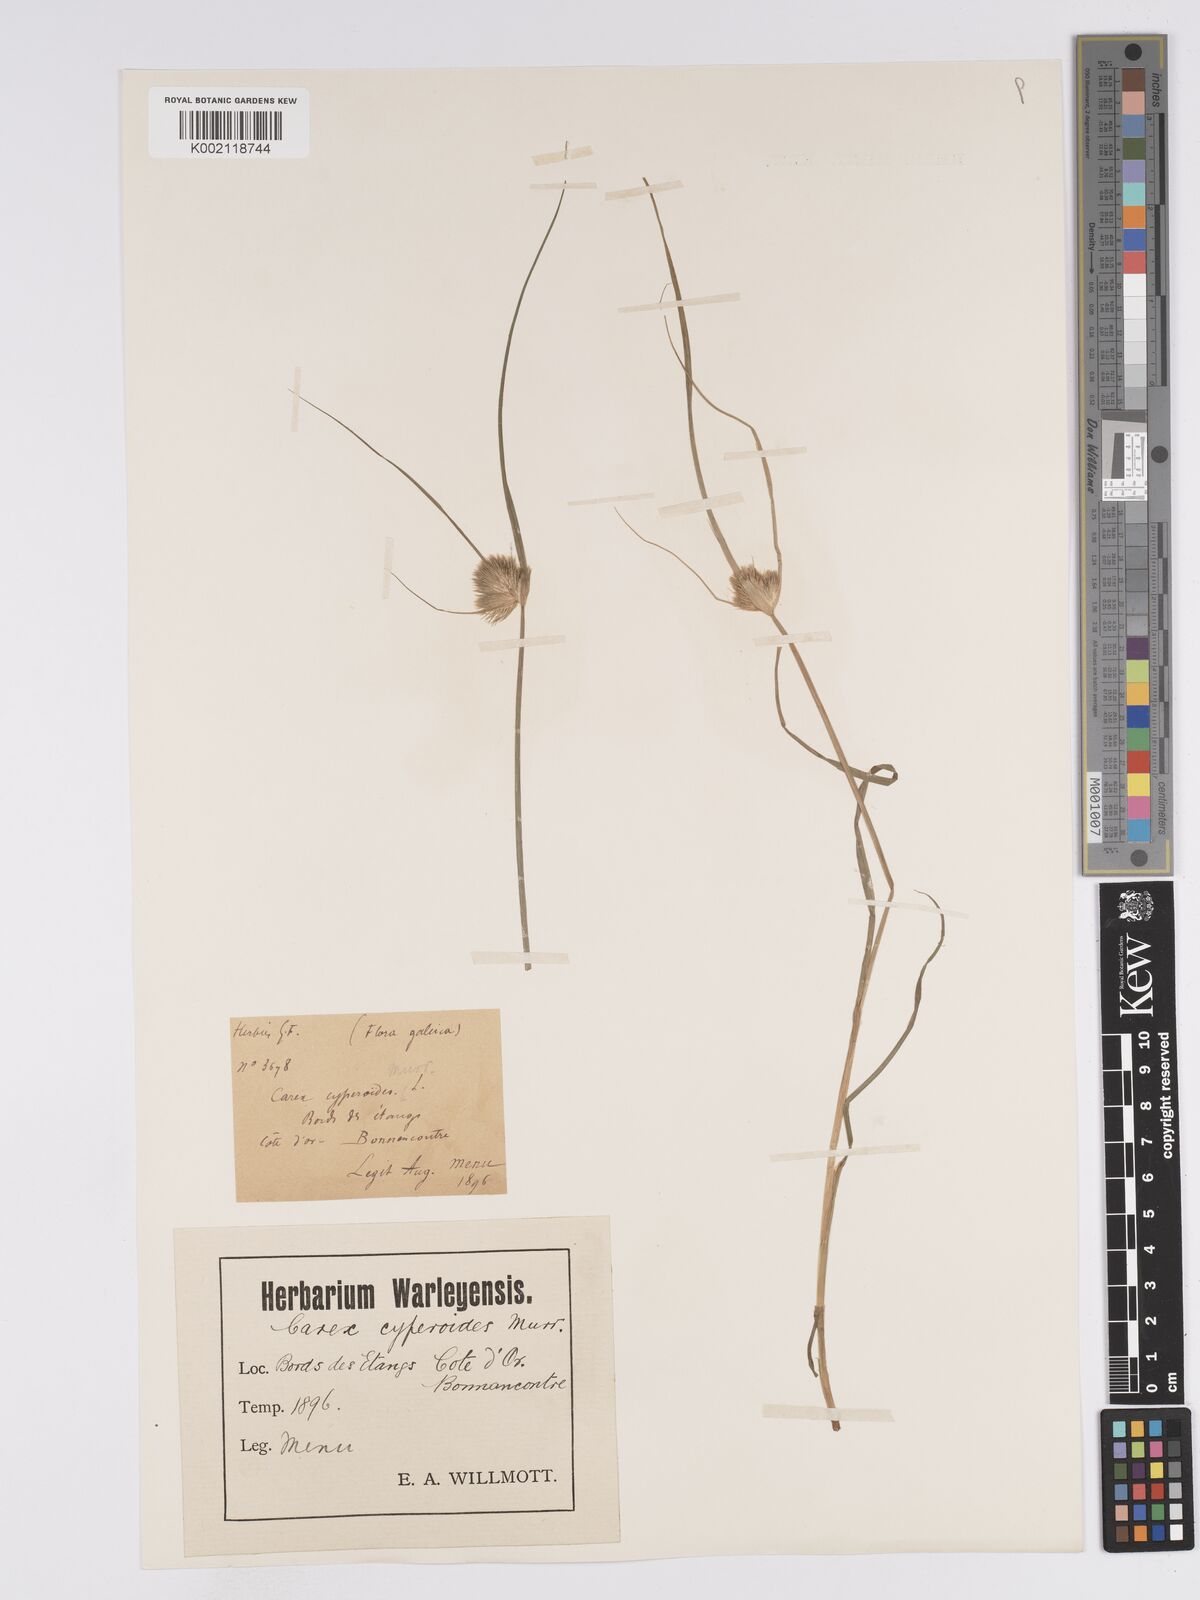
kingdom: Plantae
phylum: Tracheophyta
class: Liliopsida
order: Poales
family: Cyperaceae
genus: Carex
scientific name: Carex bohemica
